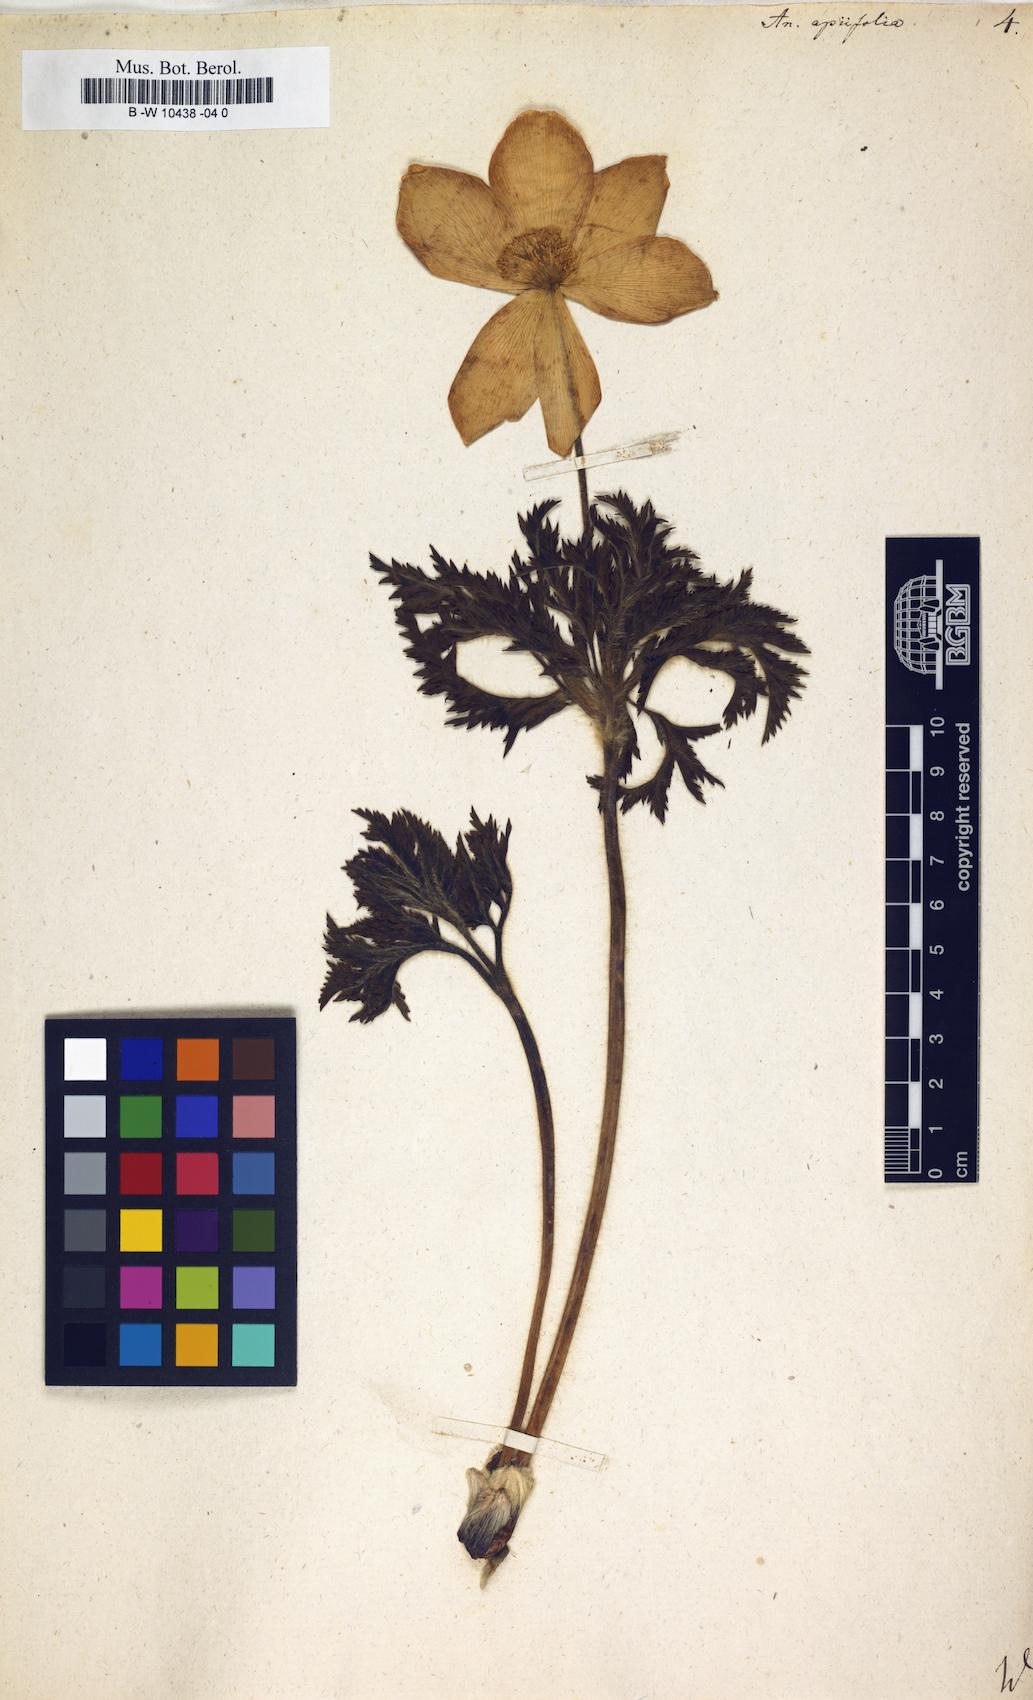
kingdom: Plantae
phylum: Tracheophyta
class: Magnoliopsida
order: Ranunculales
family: Ranunculaceae
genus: Pulsatilla
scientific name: Pulsatilla alpina
